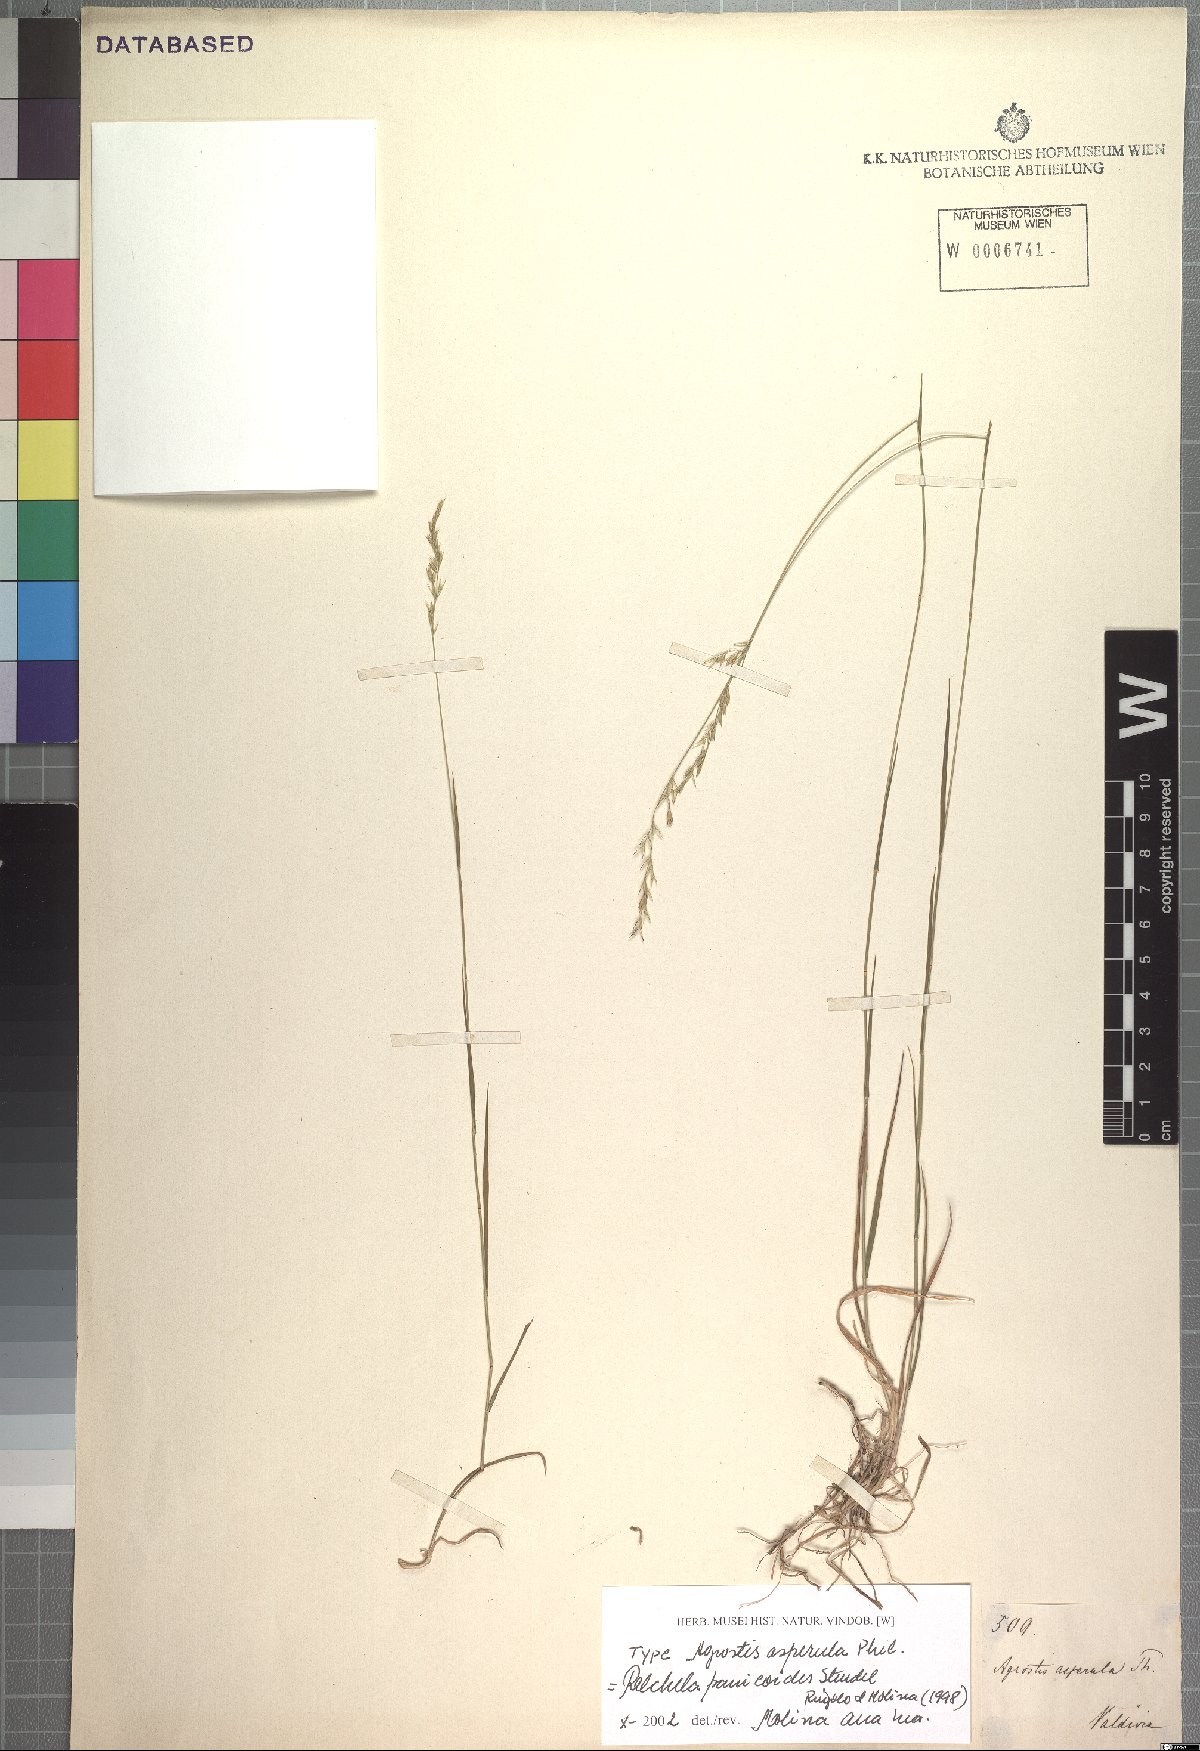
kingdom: Plantae
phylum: Tracheophyta
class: Liliopsida
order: Poales
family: Poaceae
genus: Relchela
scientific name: Relchela panicoides
